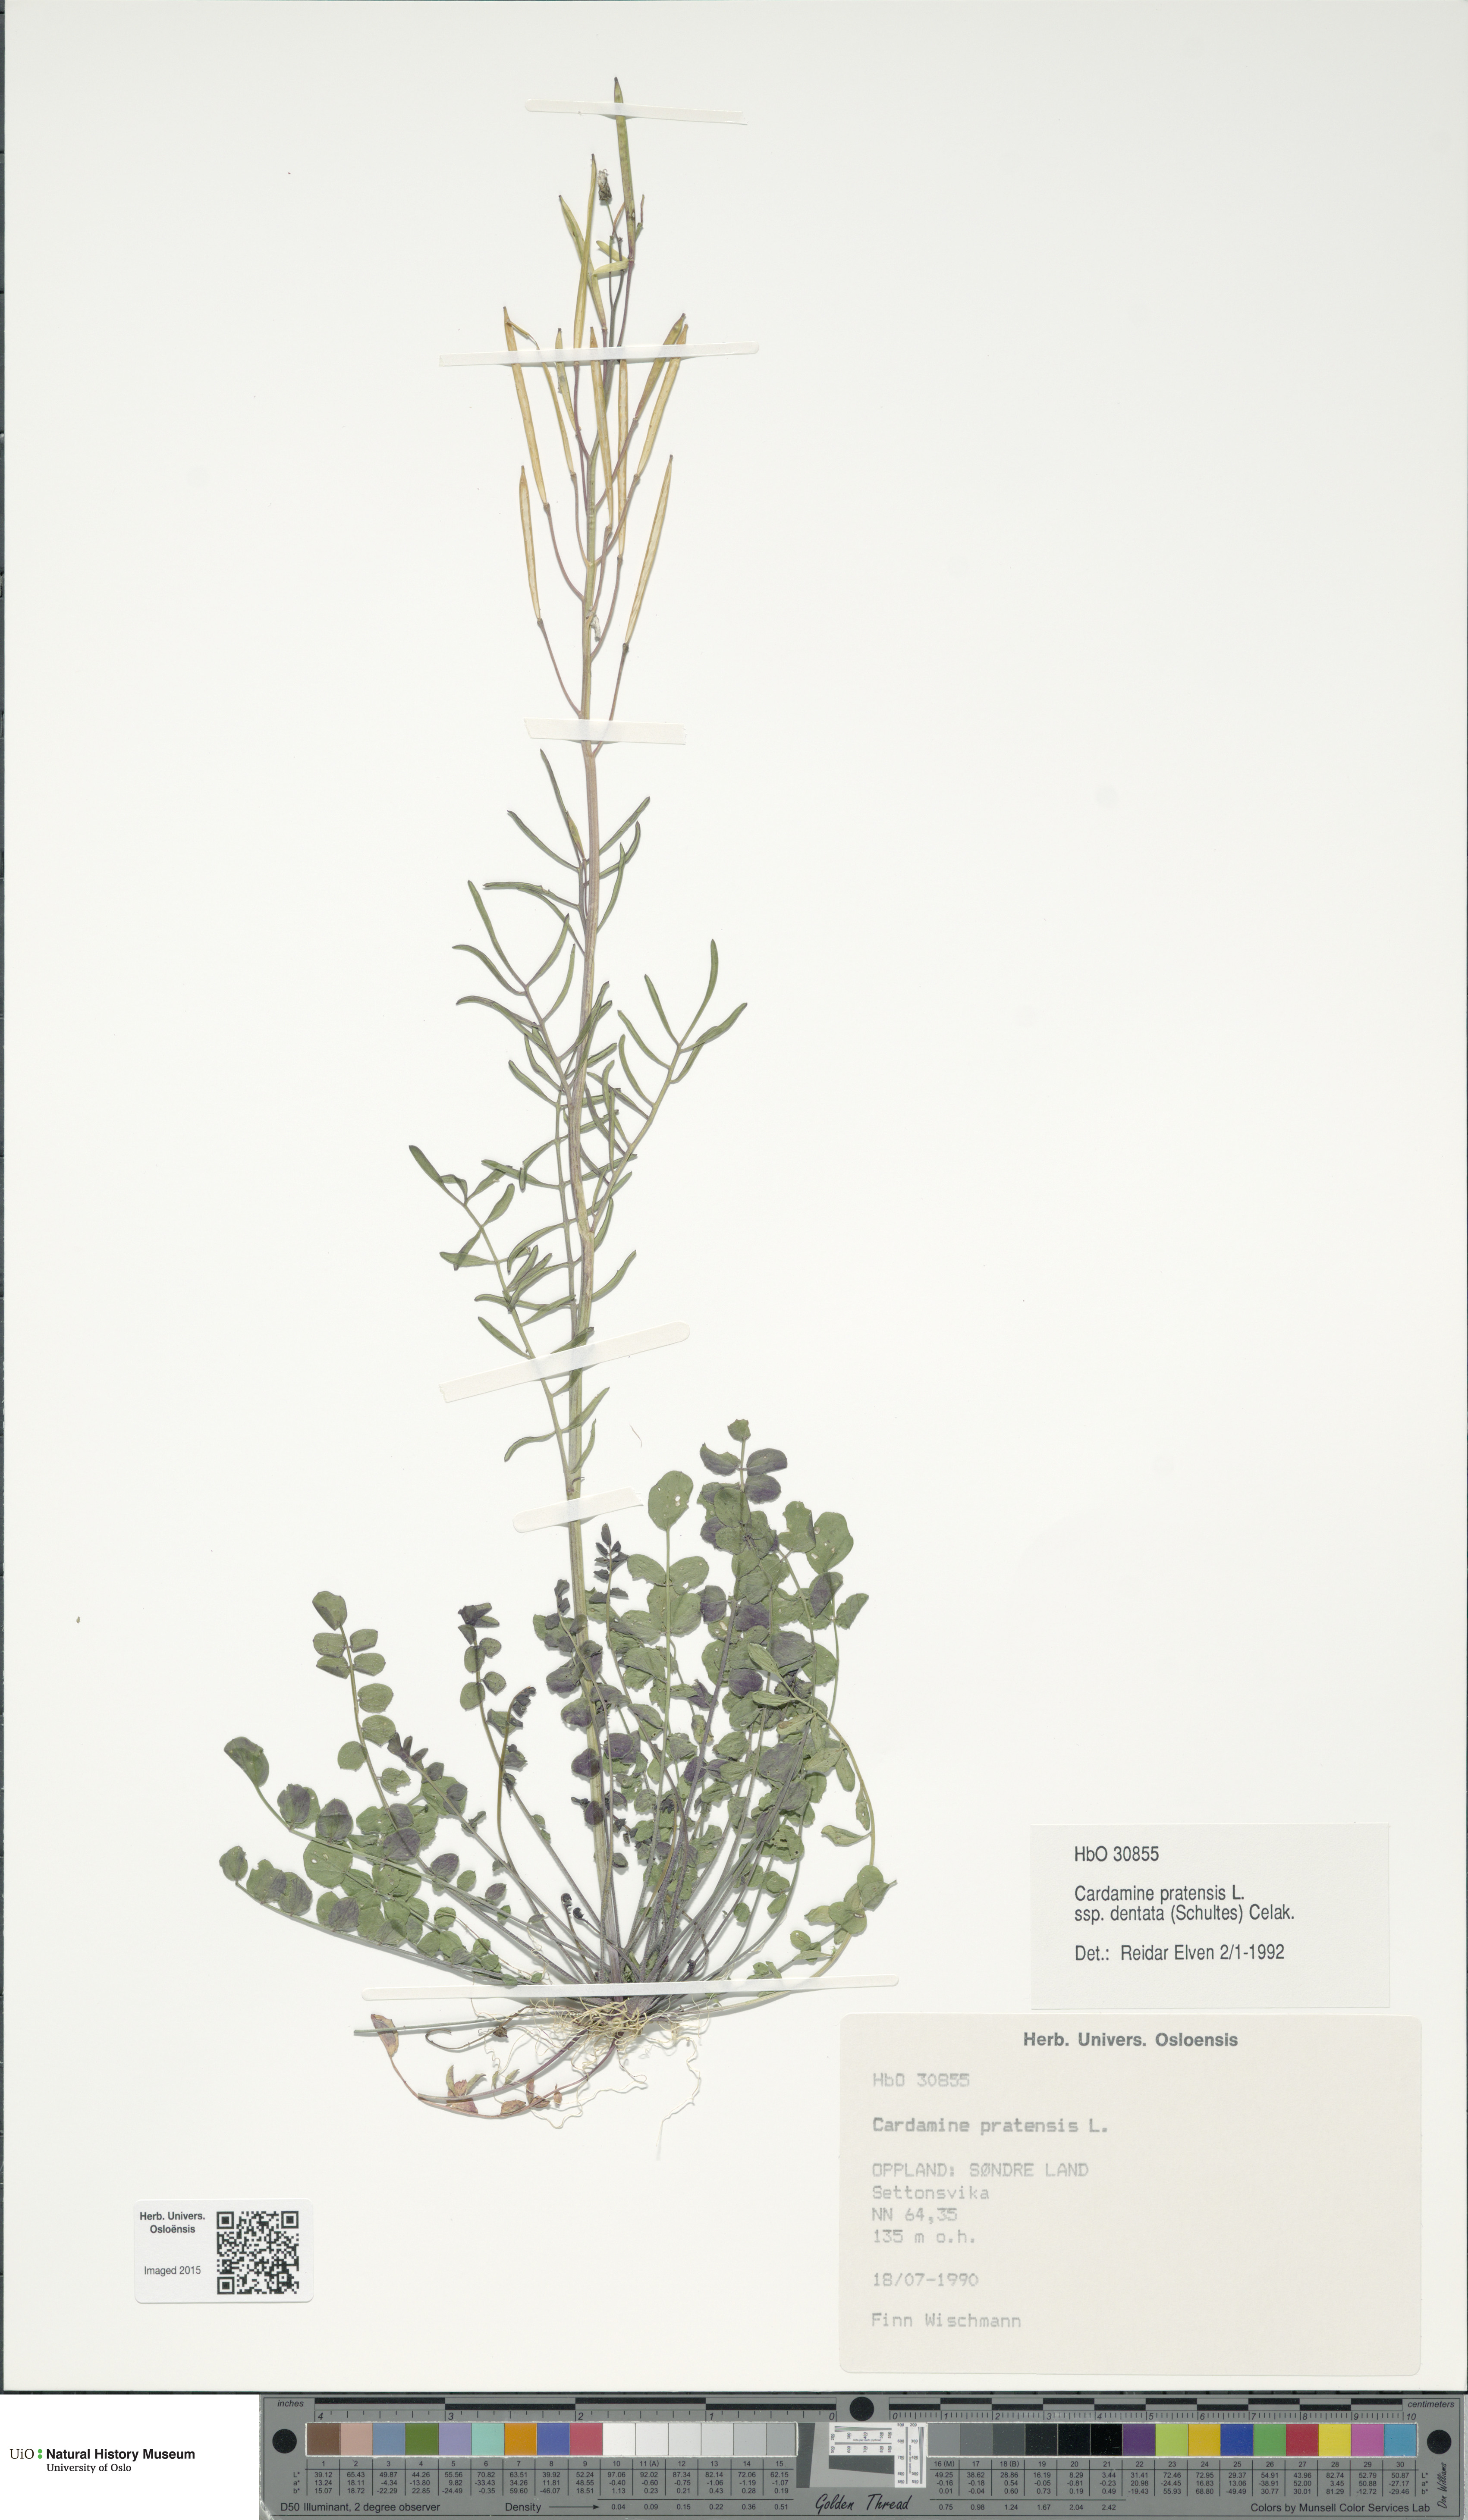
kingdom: Plantae
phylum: Tracheophyta
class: Magnoliopsida
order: Brassicales
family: Brassicaceae
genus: Cardamine
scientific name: Cardamine dentata
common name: Toothed bittercress
